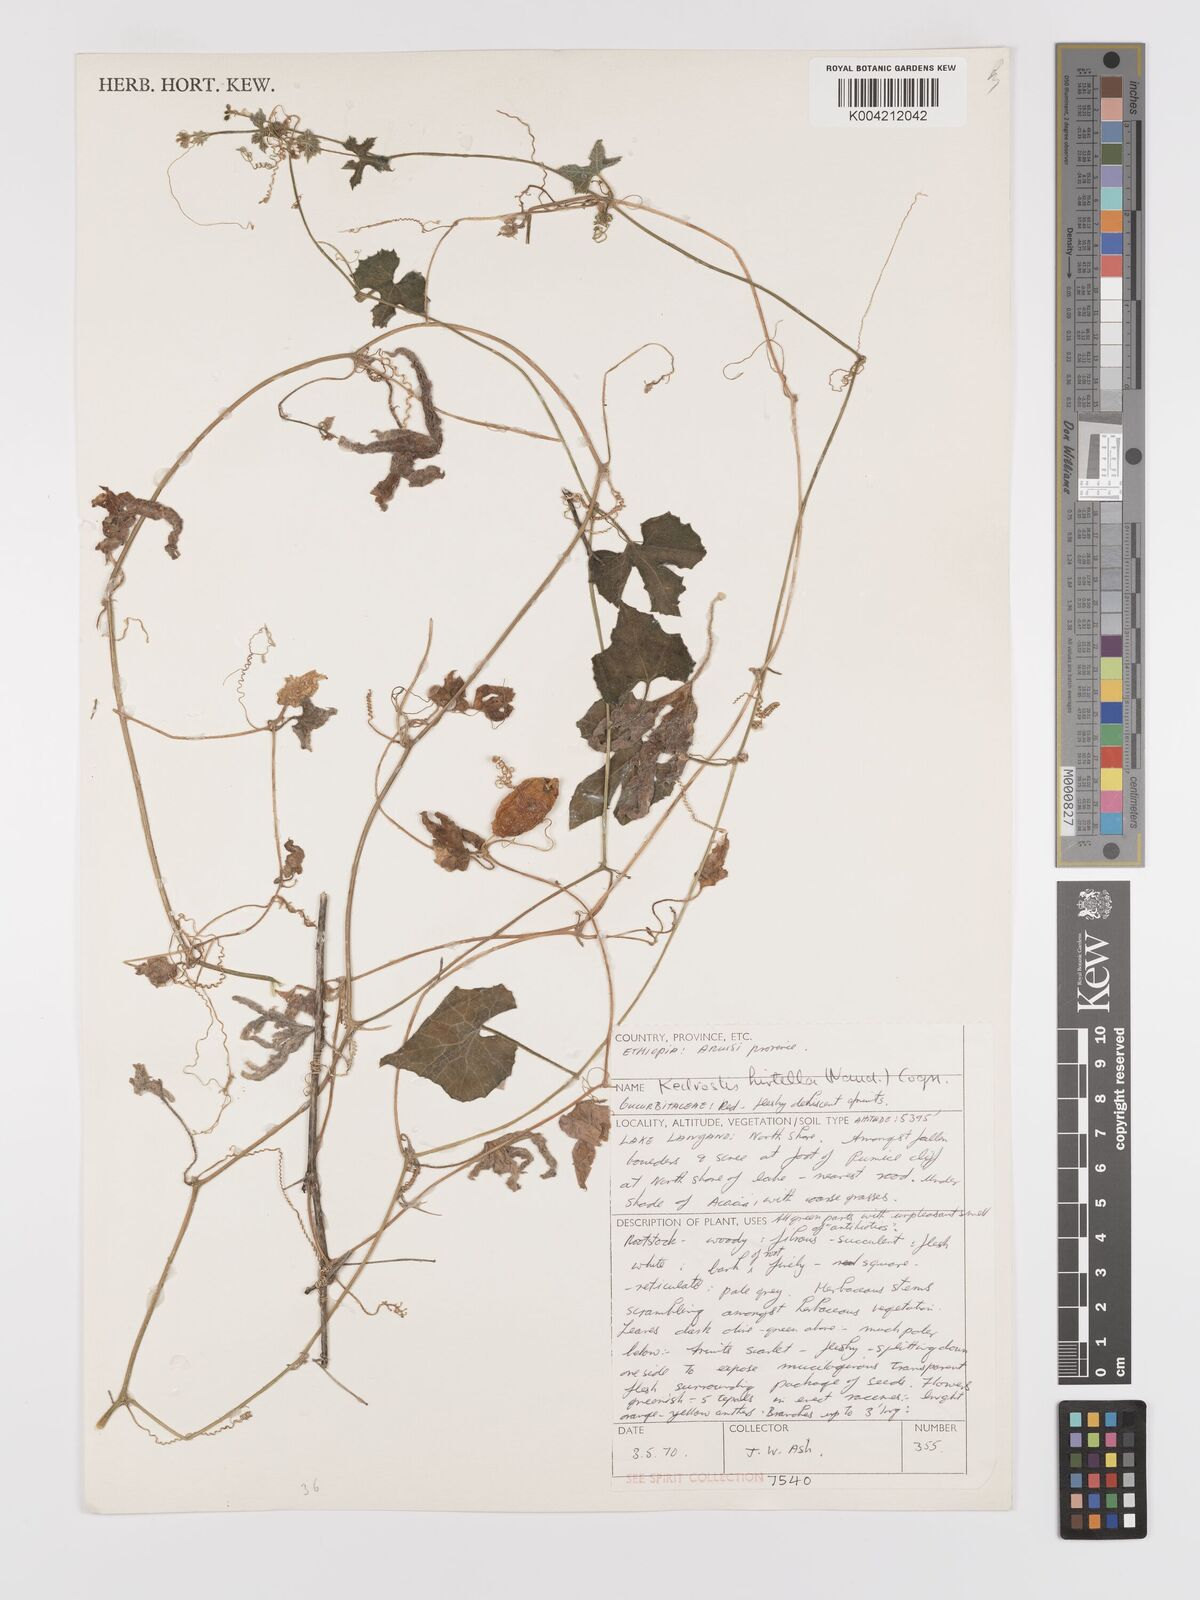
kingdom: Plantae
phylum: Tracheophyta
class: Magnoliopsida
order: Cucurbitales
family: Cucurbitaceae
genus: Kedrostis
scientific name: Kedrostis leloja
